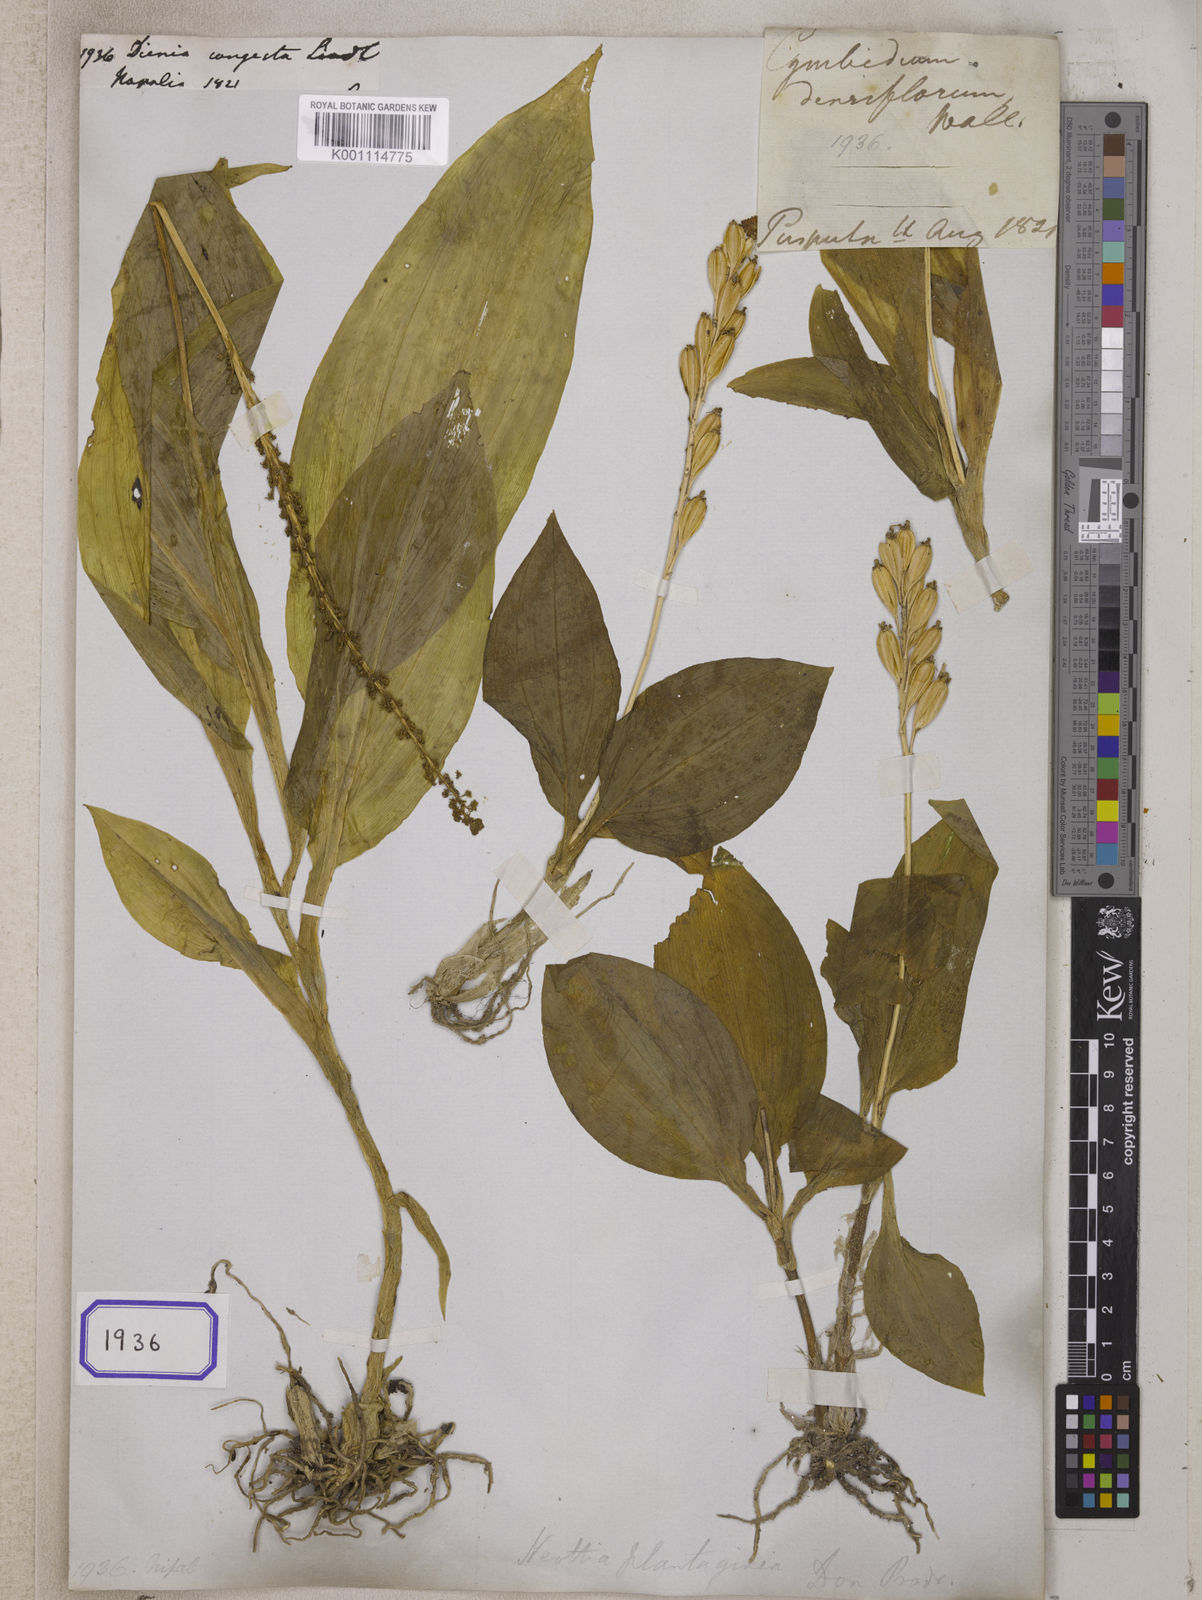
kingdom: Plantae
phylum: Tracheophyta
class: Liliopsida
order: Asparagales
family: Orchidaceae
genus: Dienia
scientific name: Dienia ophrydis
